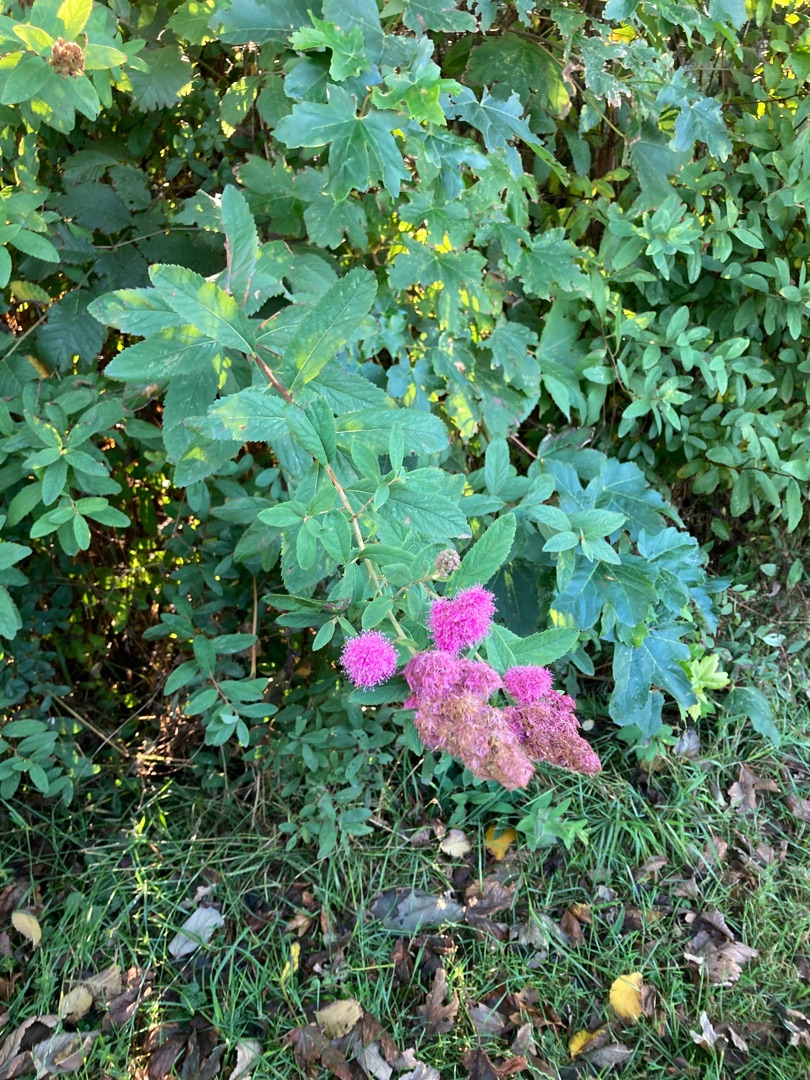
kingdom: Plantae
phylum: Tracheophyta
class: Magnoliopsida
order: Rosales
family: Rosaceae
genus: Spiraea
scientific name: Spiraea
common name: Spiræaslægten
